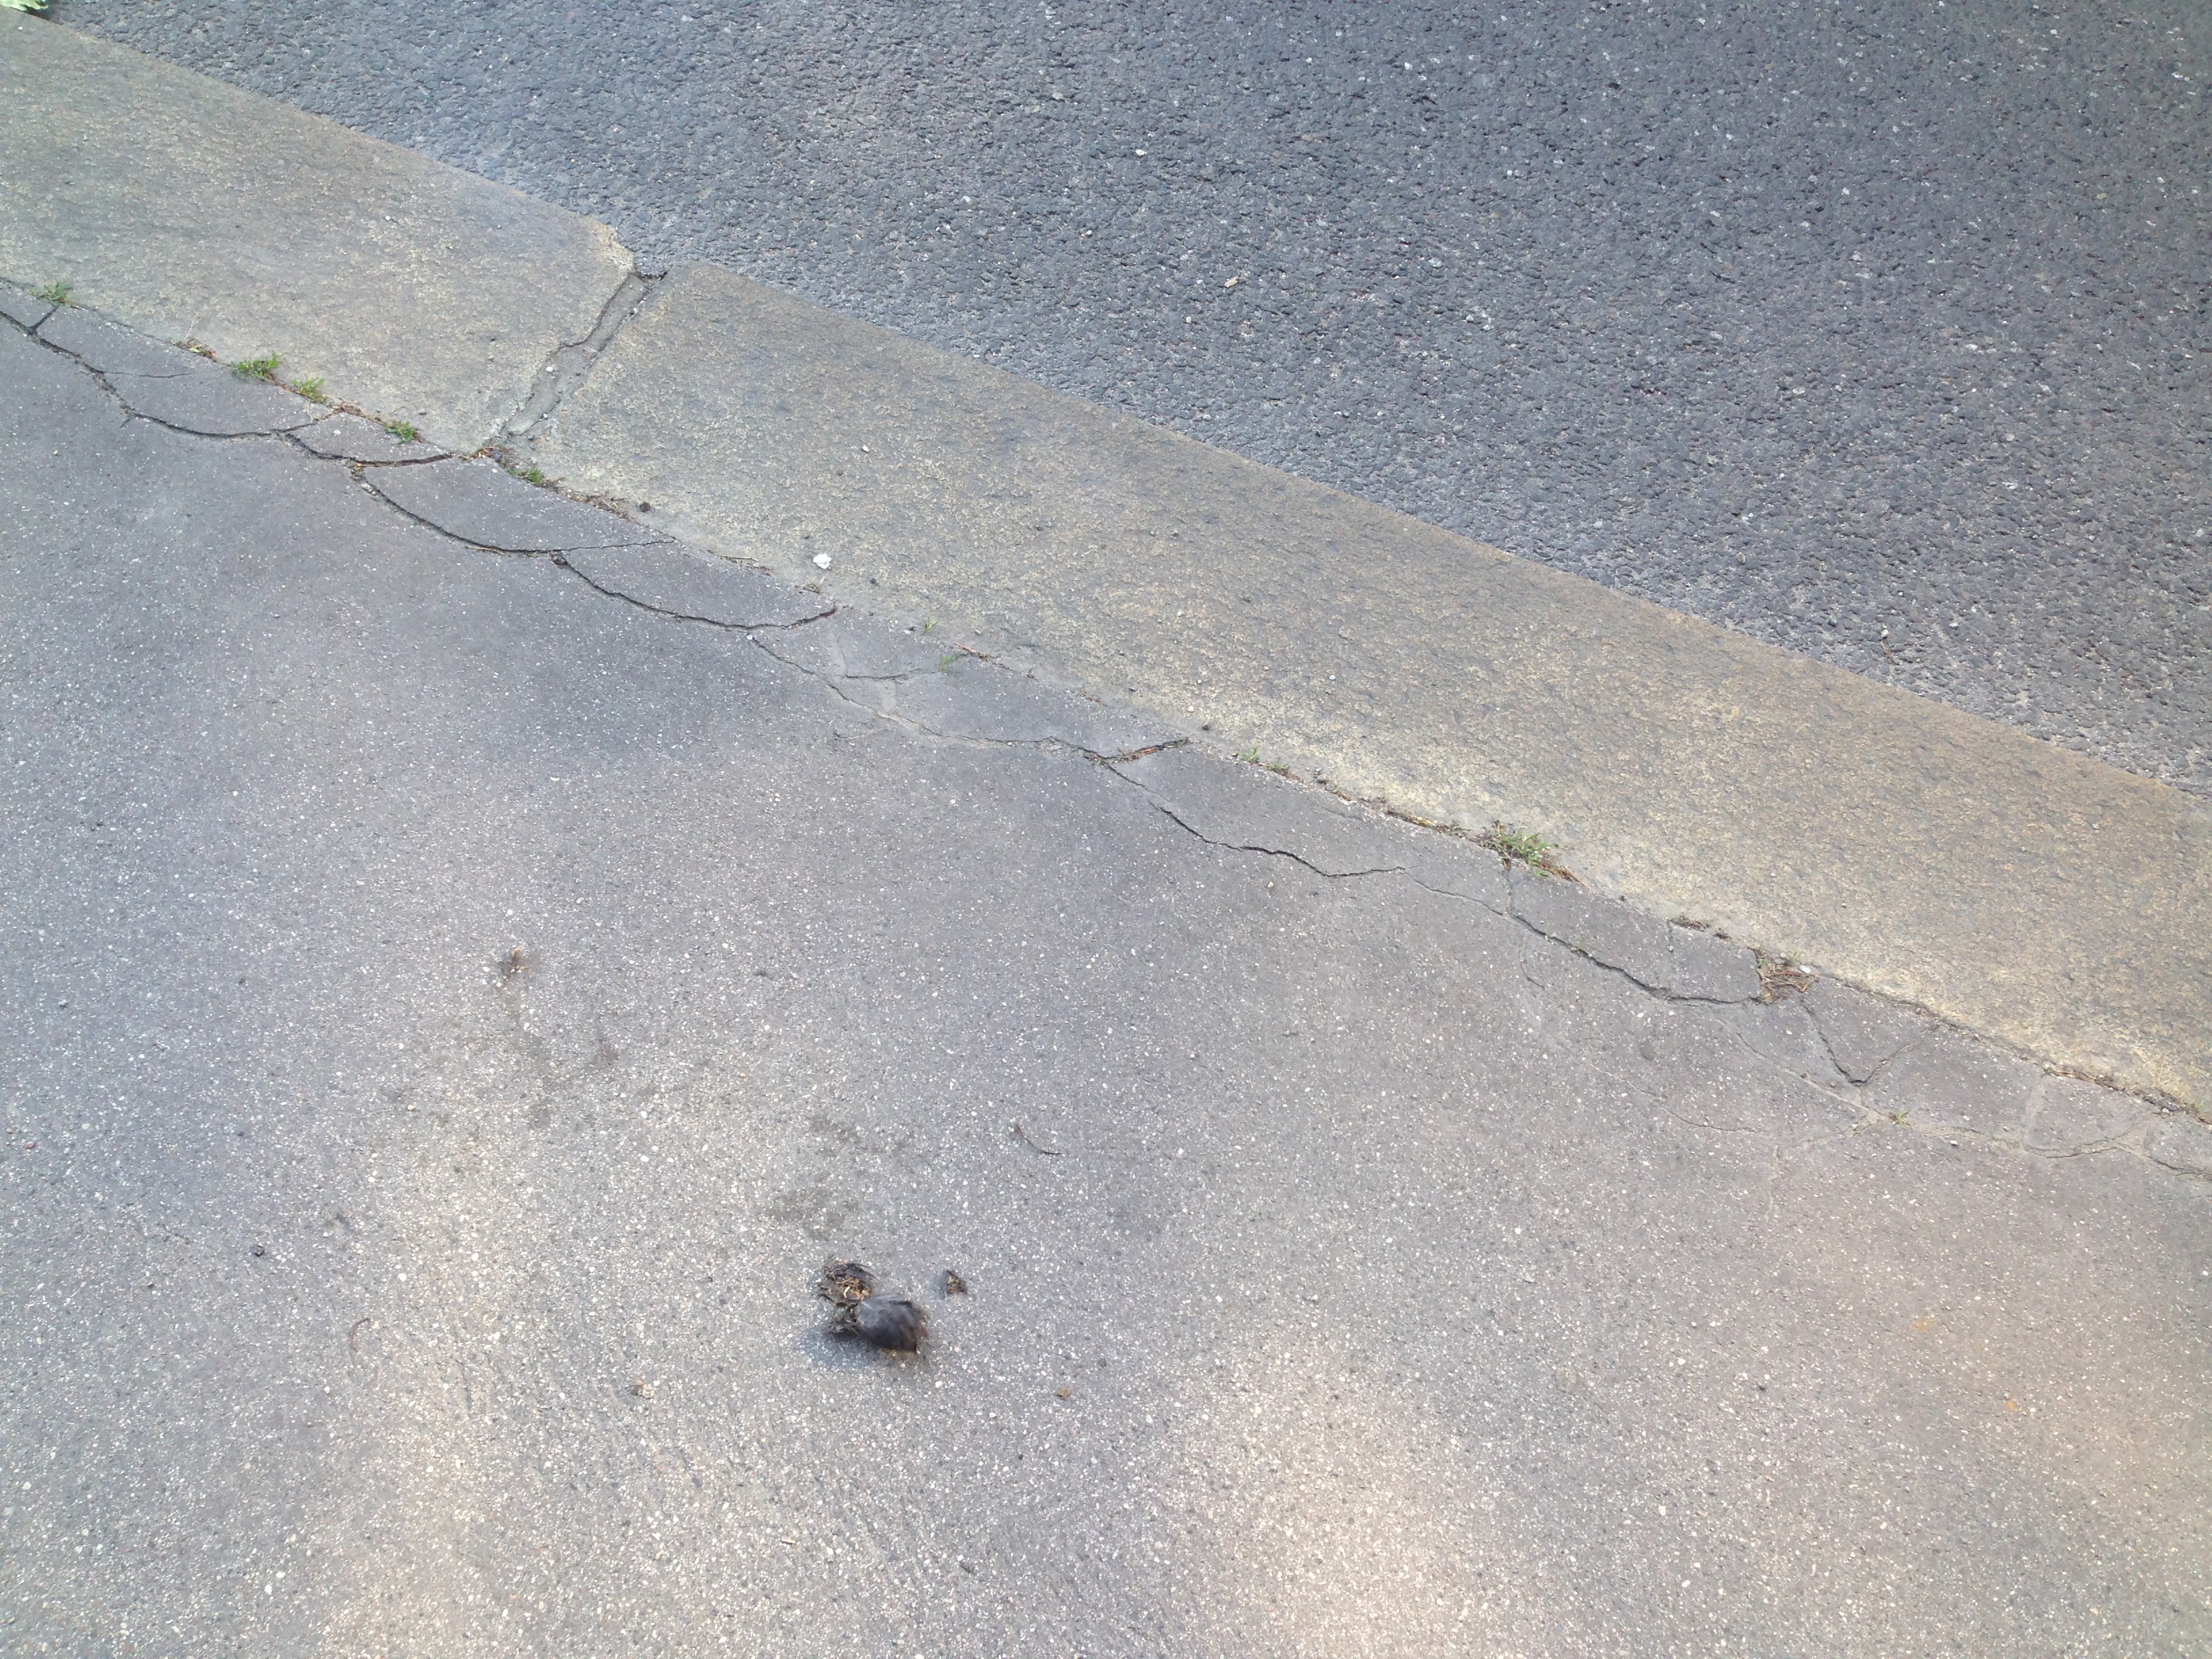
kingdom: Animalia
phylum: Chordata
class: Aves
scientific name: Aves
